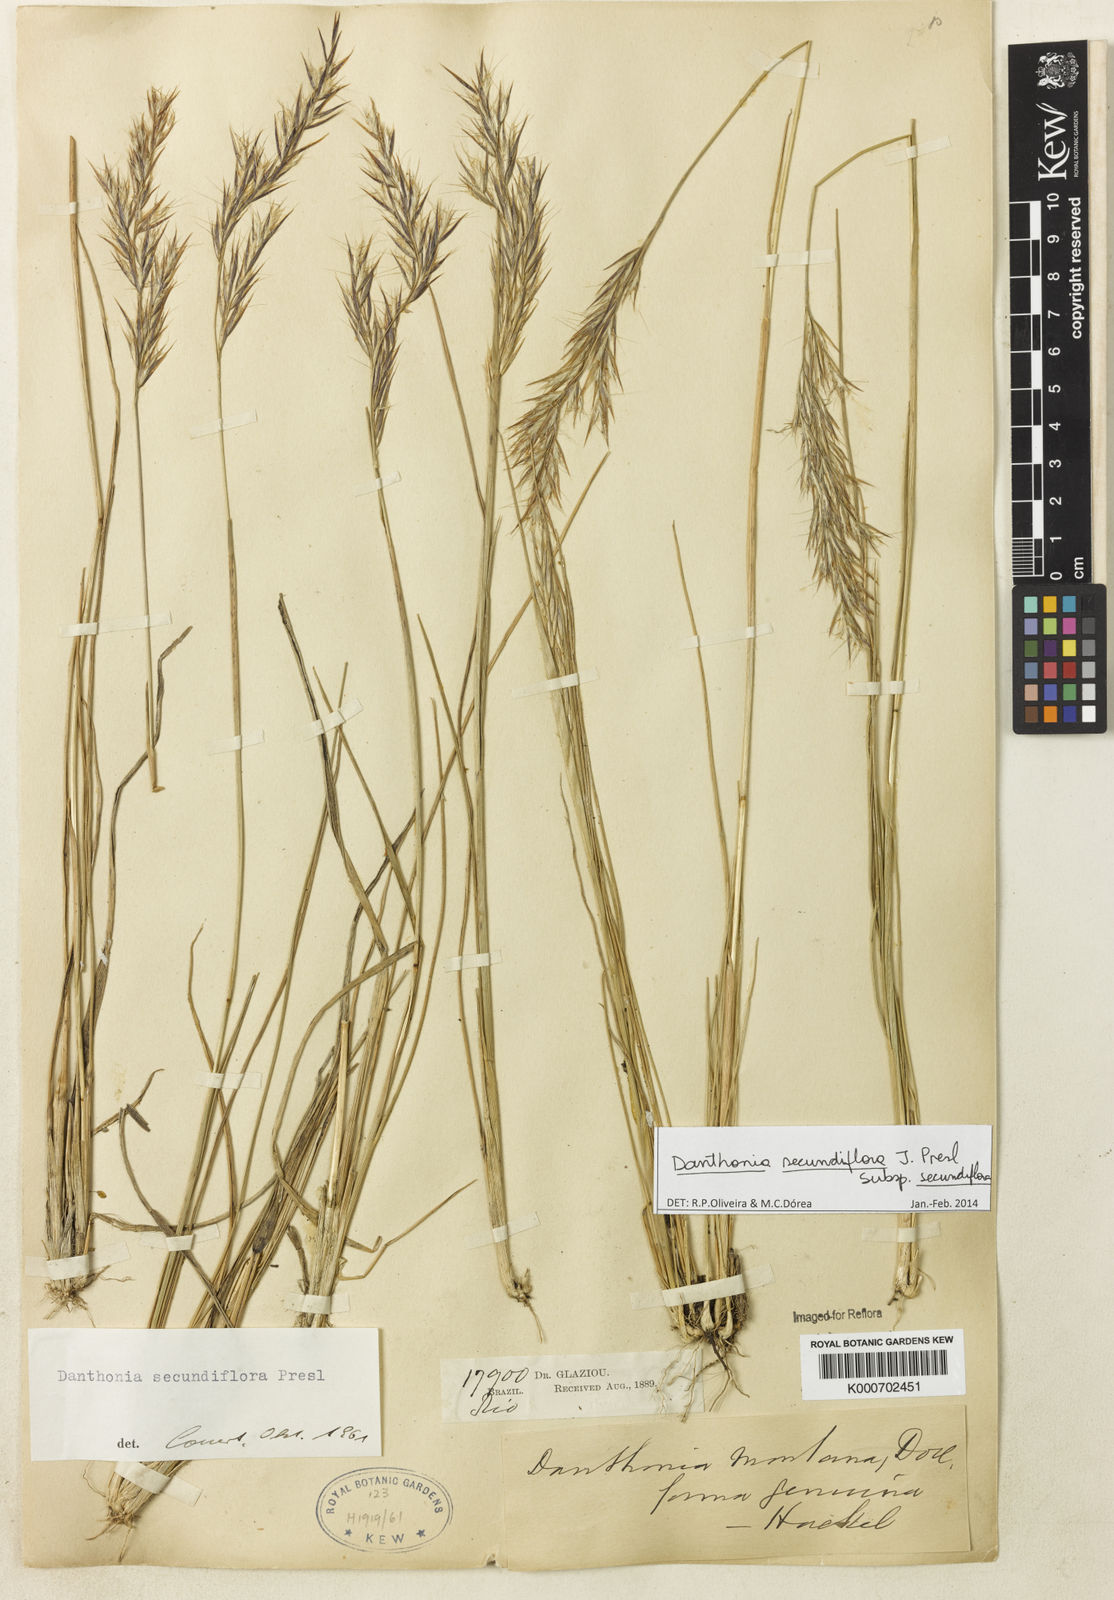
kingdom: Plantae
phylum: Tracheophyta
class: Liliopsida
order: Poales
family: Poaceae
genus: Danthonia
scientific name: Danthonia secundiflora
